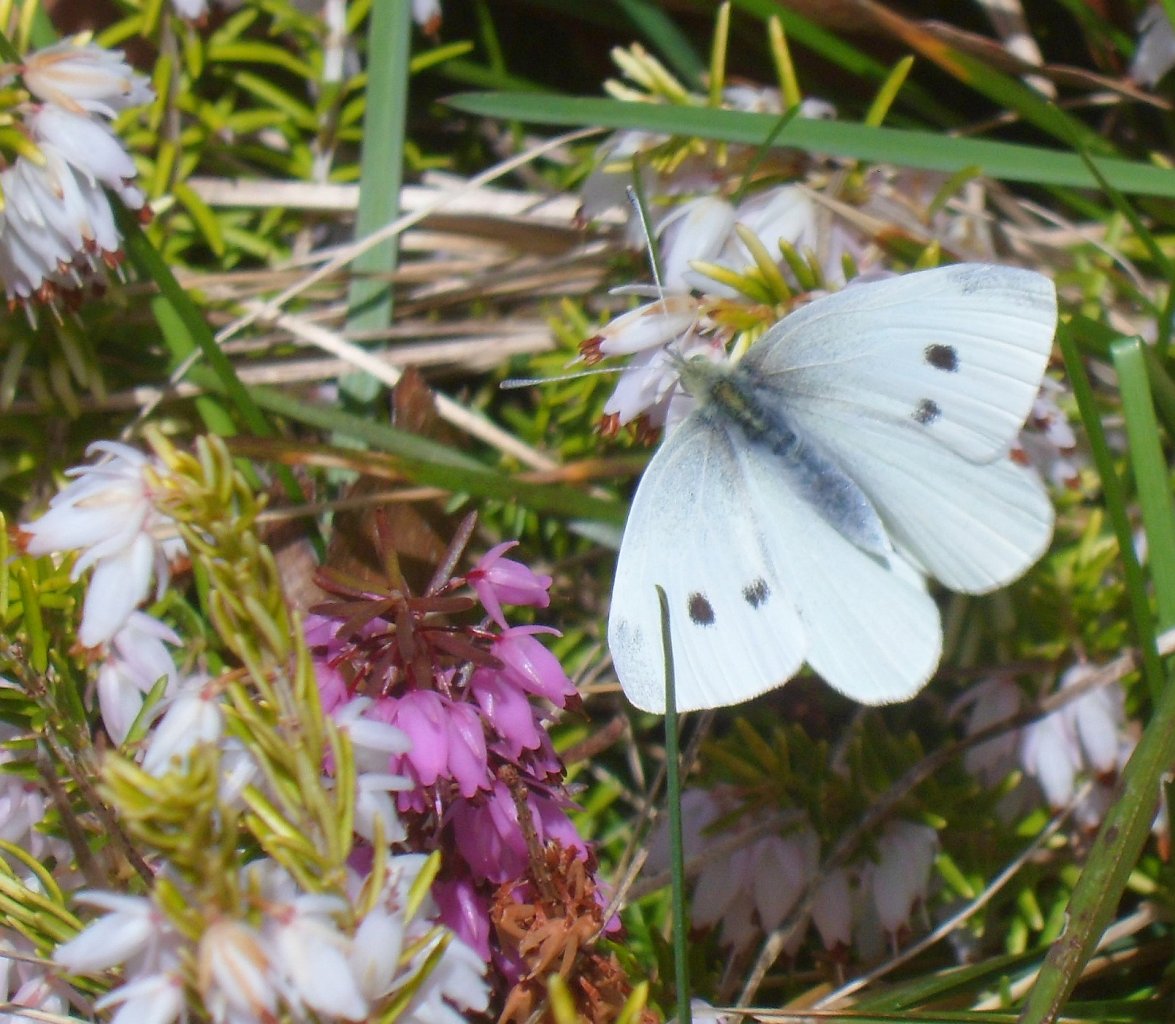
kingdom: Animalia
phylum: Arthropoda
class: Insecta
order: Lepidoptera
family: Pieridae
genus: Pieris
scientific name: Pieris rapae
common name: Cabbage White
